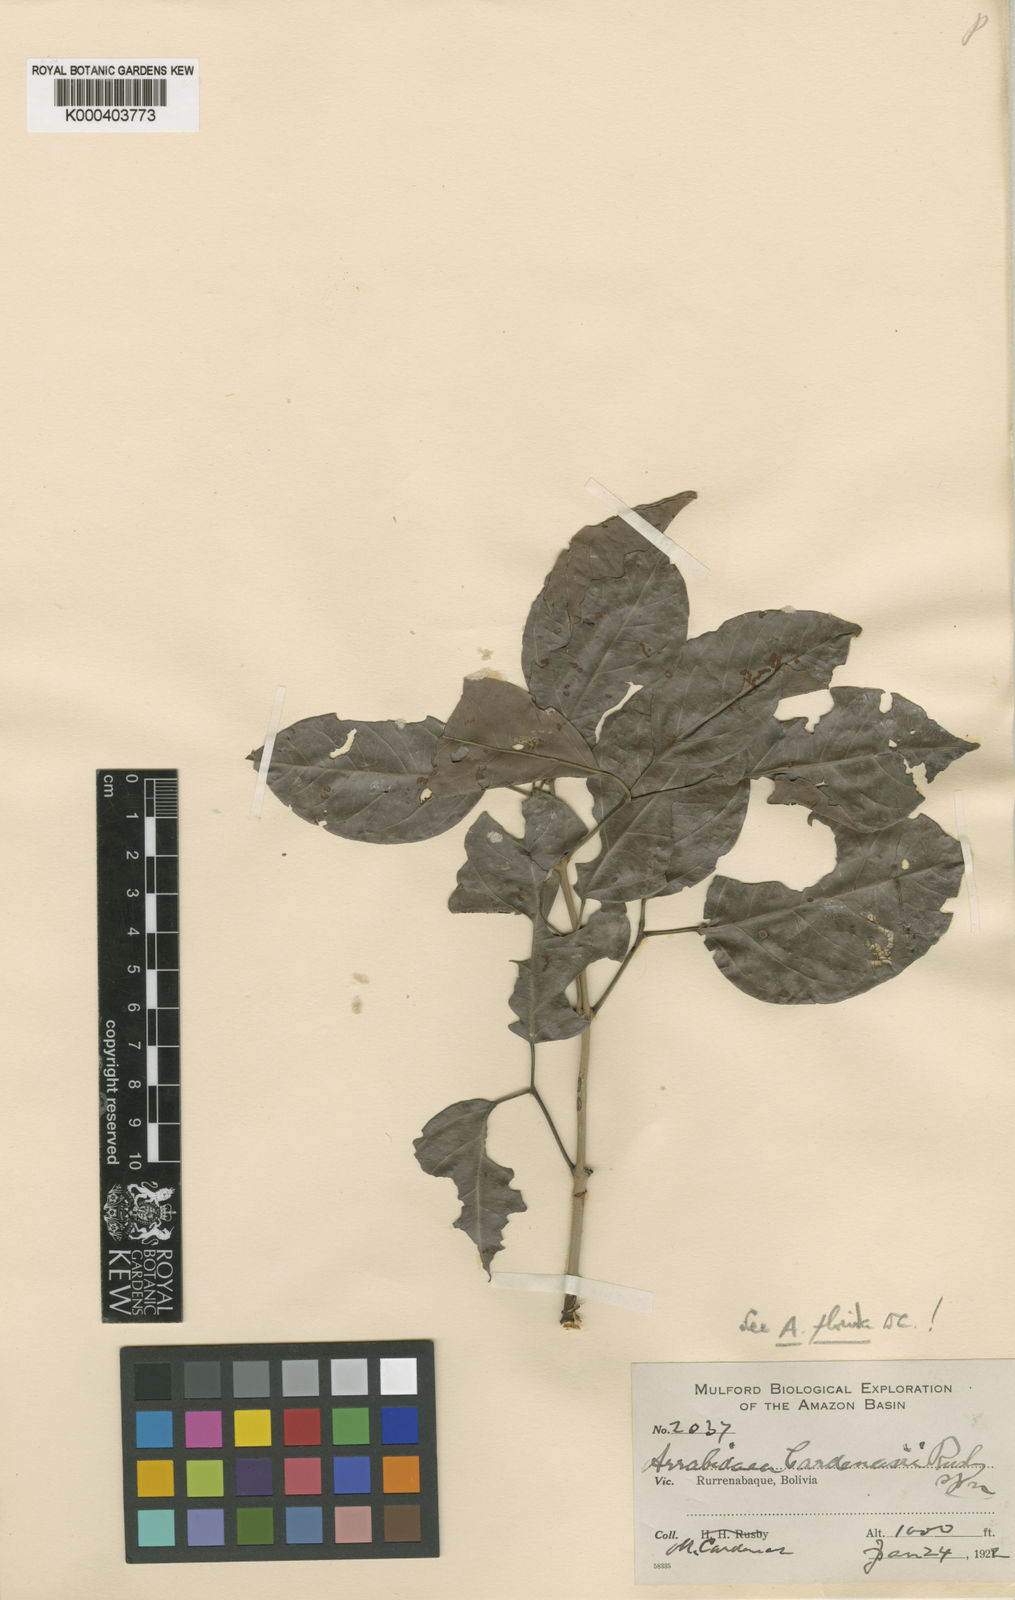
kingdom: Plantae
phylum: Tracheophyta
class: Magnoliopsida
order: Lamiales
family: Bignoniaceae
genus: Fridericia
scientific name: Fridericia florida
